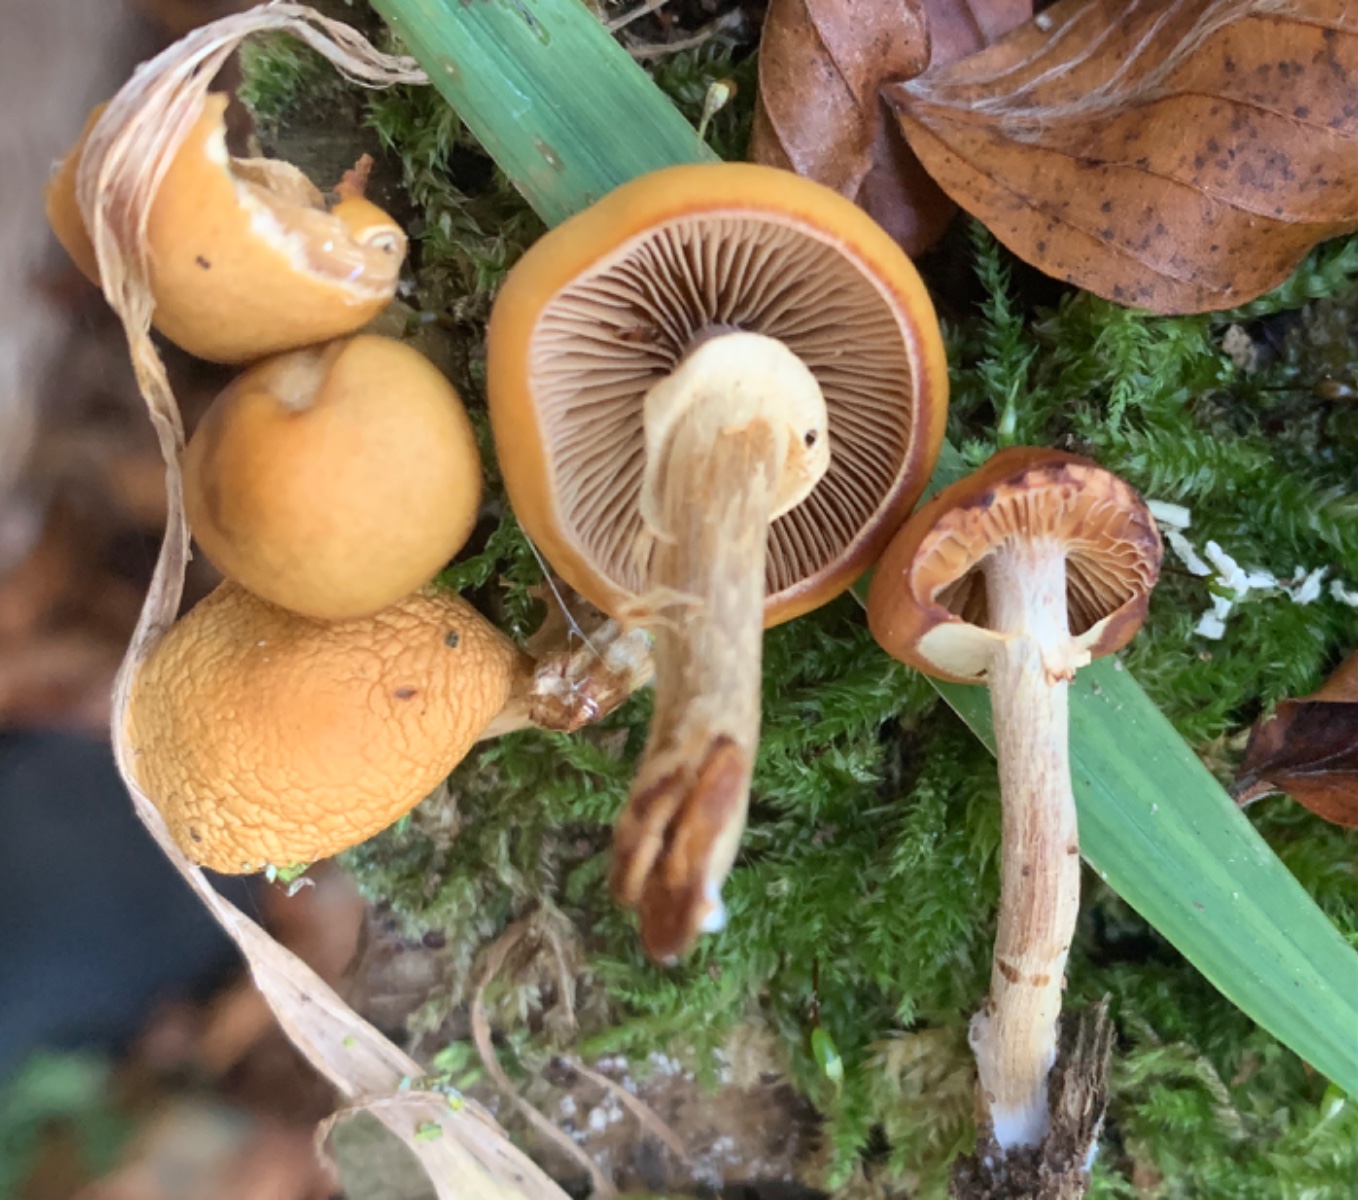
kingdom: Fungi
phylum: Basidiomycota
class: Agaricomycetes
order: Agaricales
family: Hymenogastraceae
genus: Galerina
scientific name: Galerina marginata
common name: randbæltet hjelmhat
